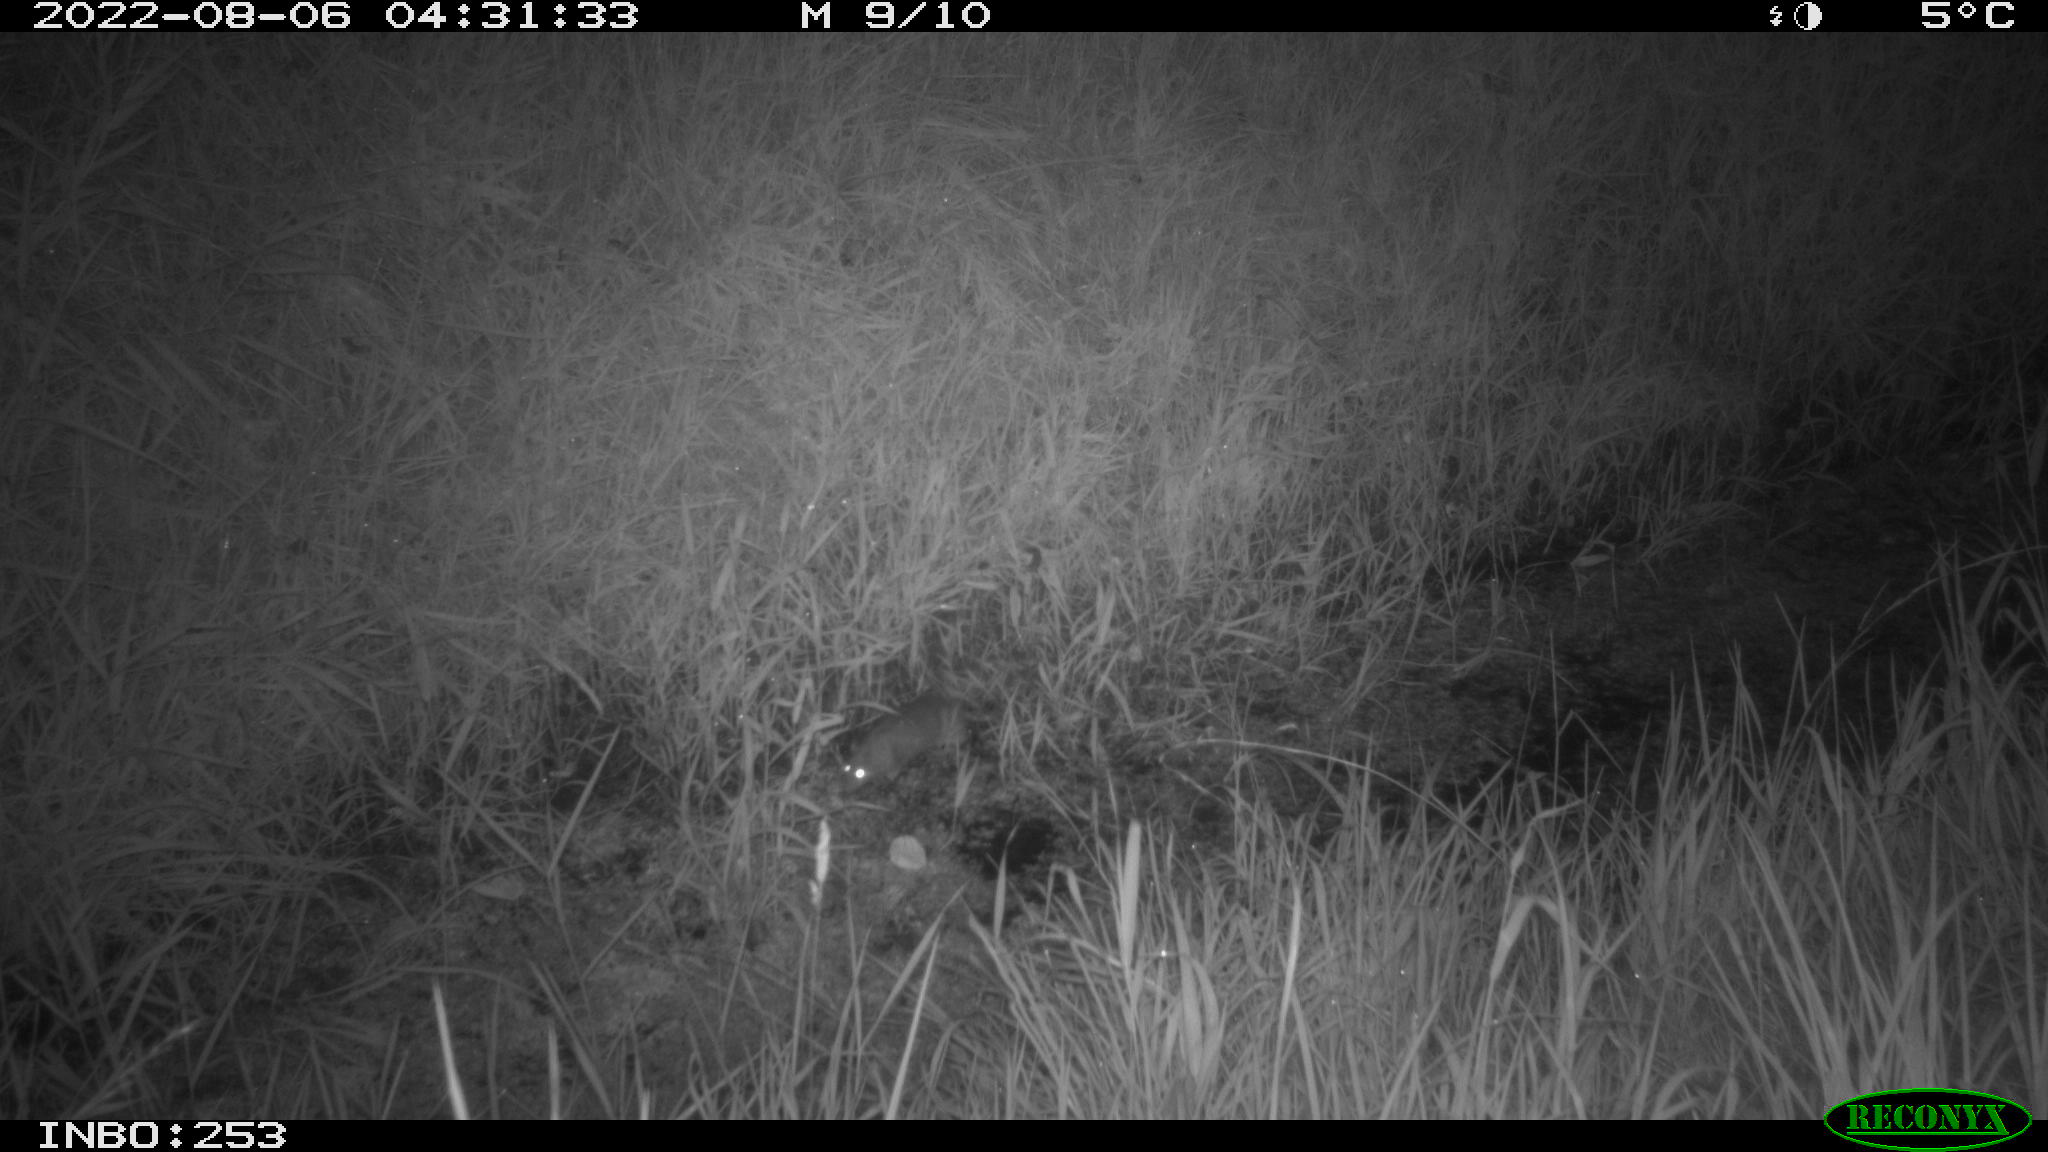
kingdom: Animalia
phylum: Chordata
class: Mammalia
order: Rodentia
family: Muridae
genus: Rattus
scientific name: Rattus norvegicus
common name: Brown rat
